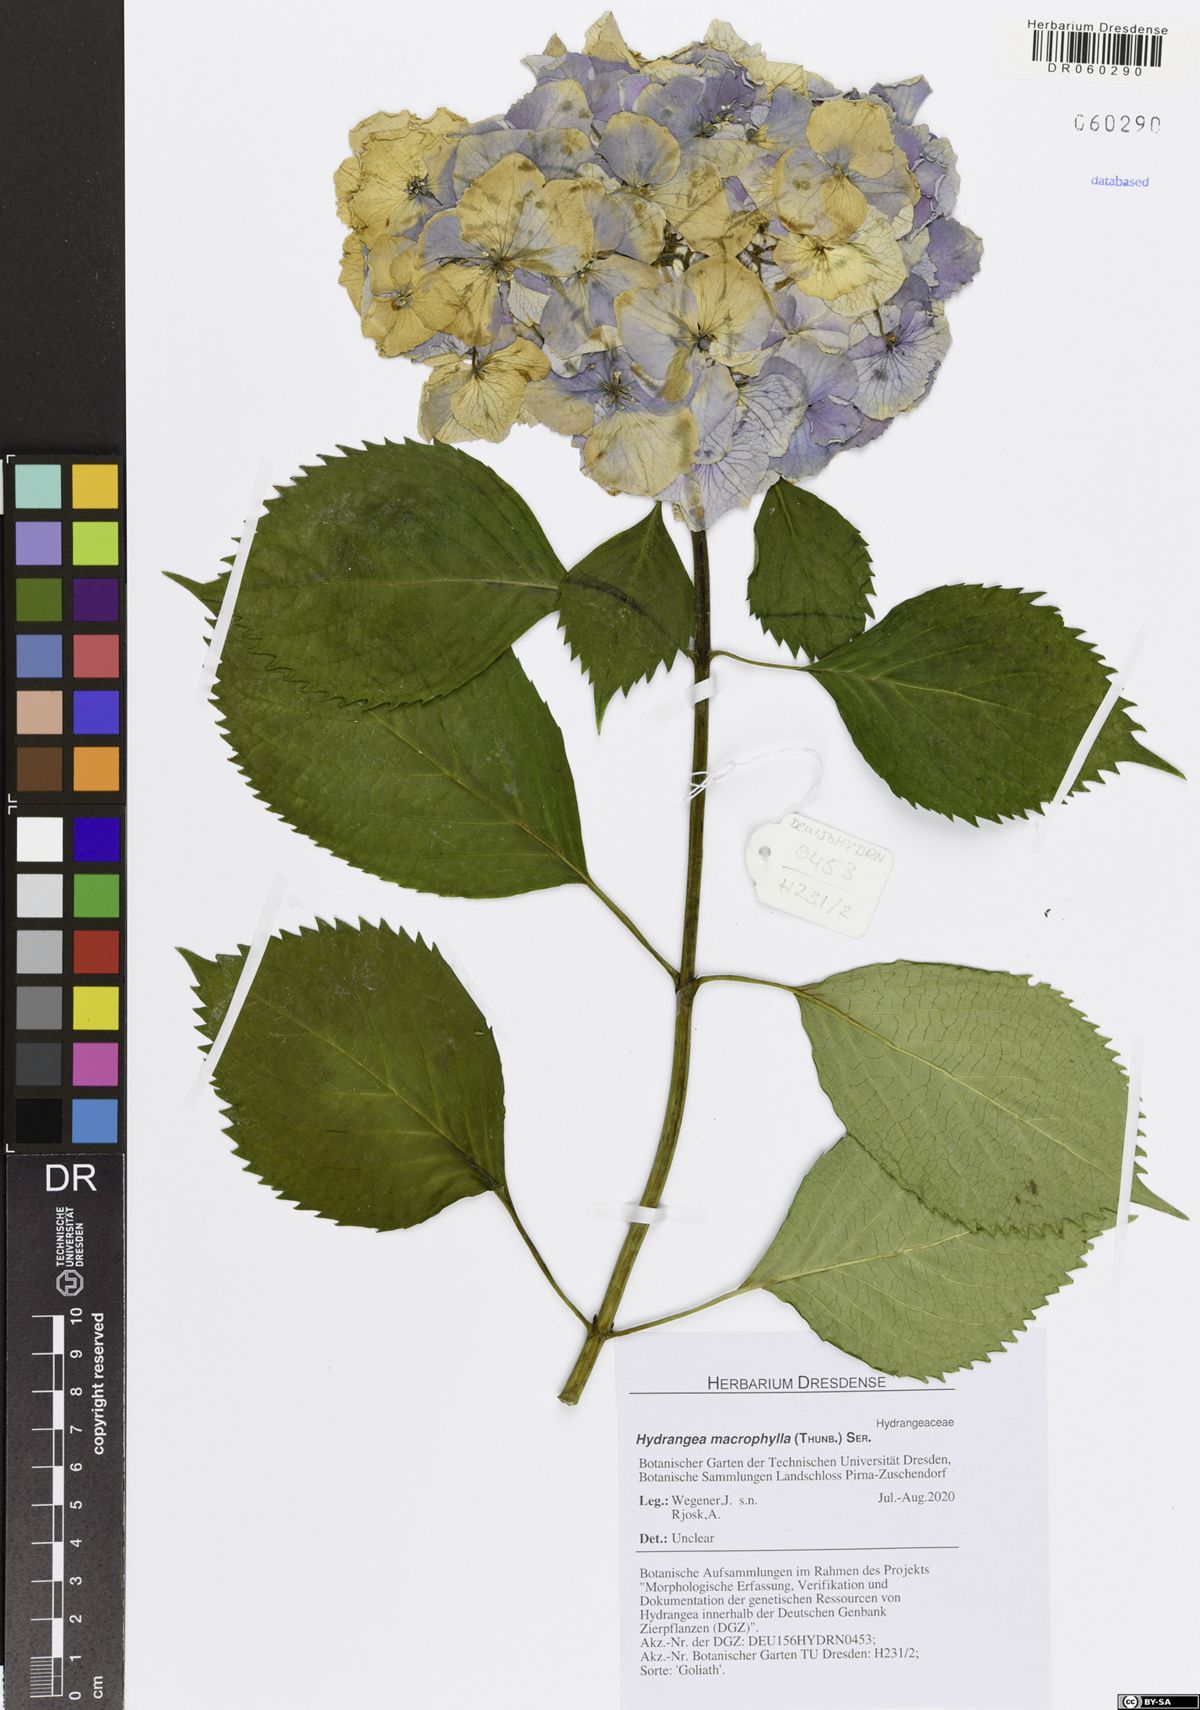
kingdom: Plantae
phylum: Tracheophyta
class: Magnoliopsida
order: Cornales
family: Hydrangeaceae
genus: Hydrangea
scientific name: Hydrangea macrophylla
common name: Hydrangea
